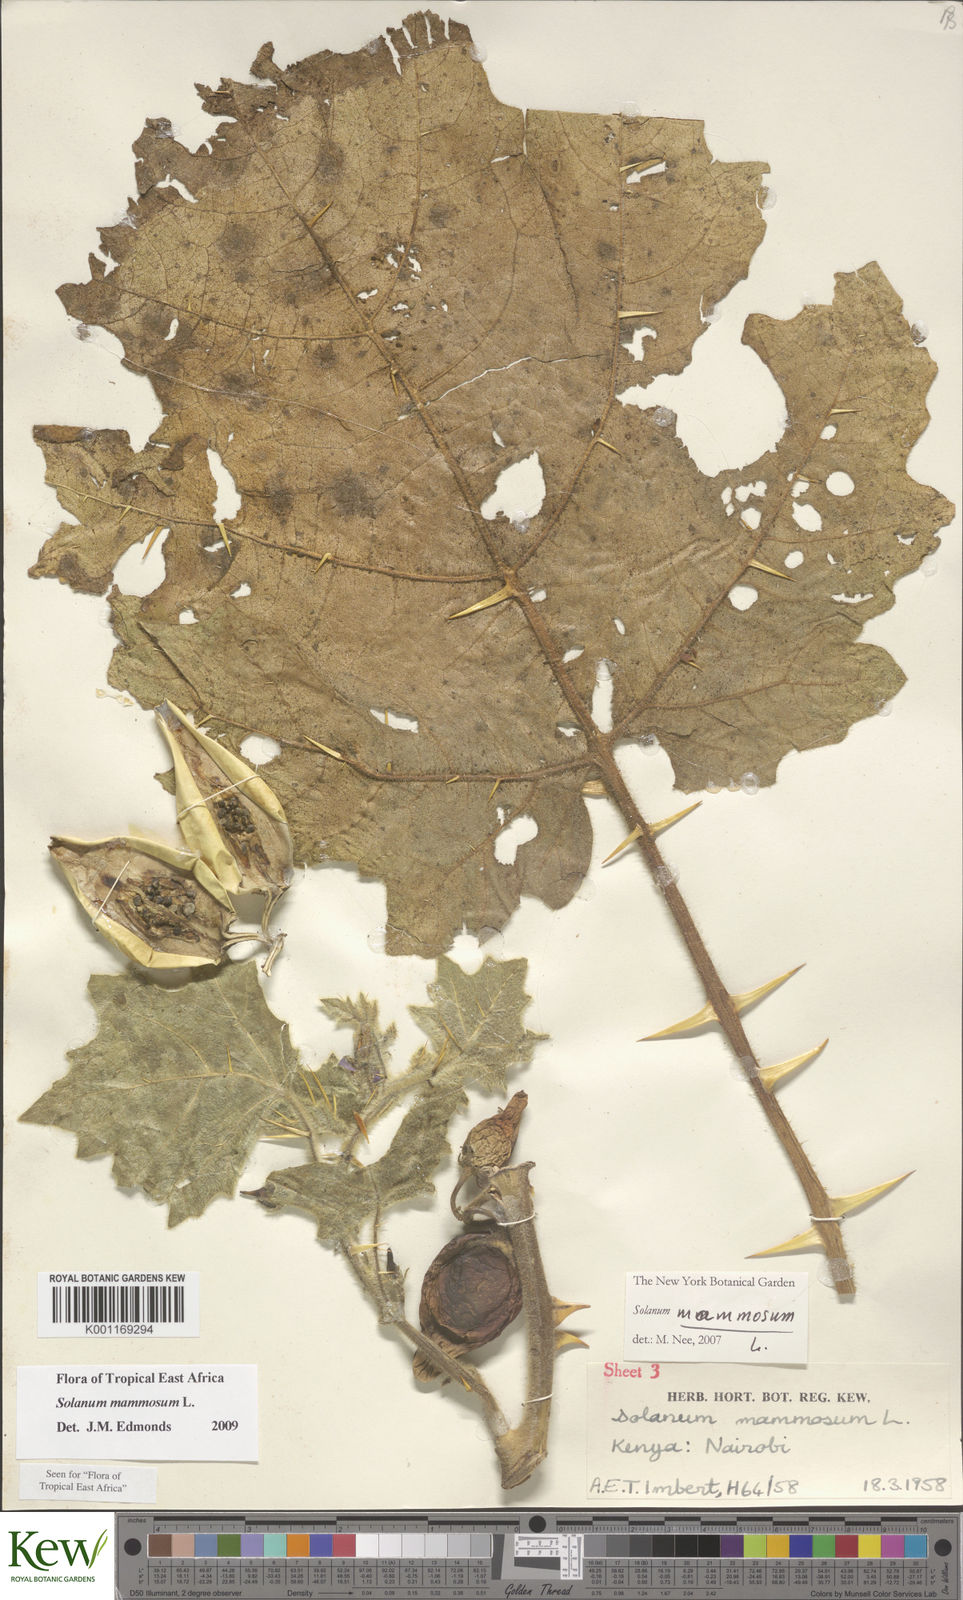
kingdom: Plantae
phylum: Tracheophyta
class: Magnoliopsida
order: Solanales
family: Solanaceae
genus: Solanum
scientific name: Solanum mammosum
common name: Nipple fruit
